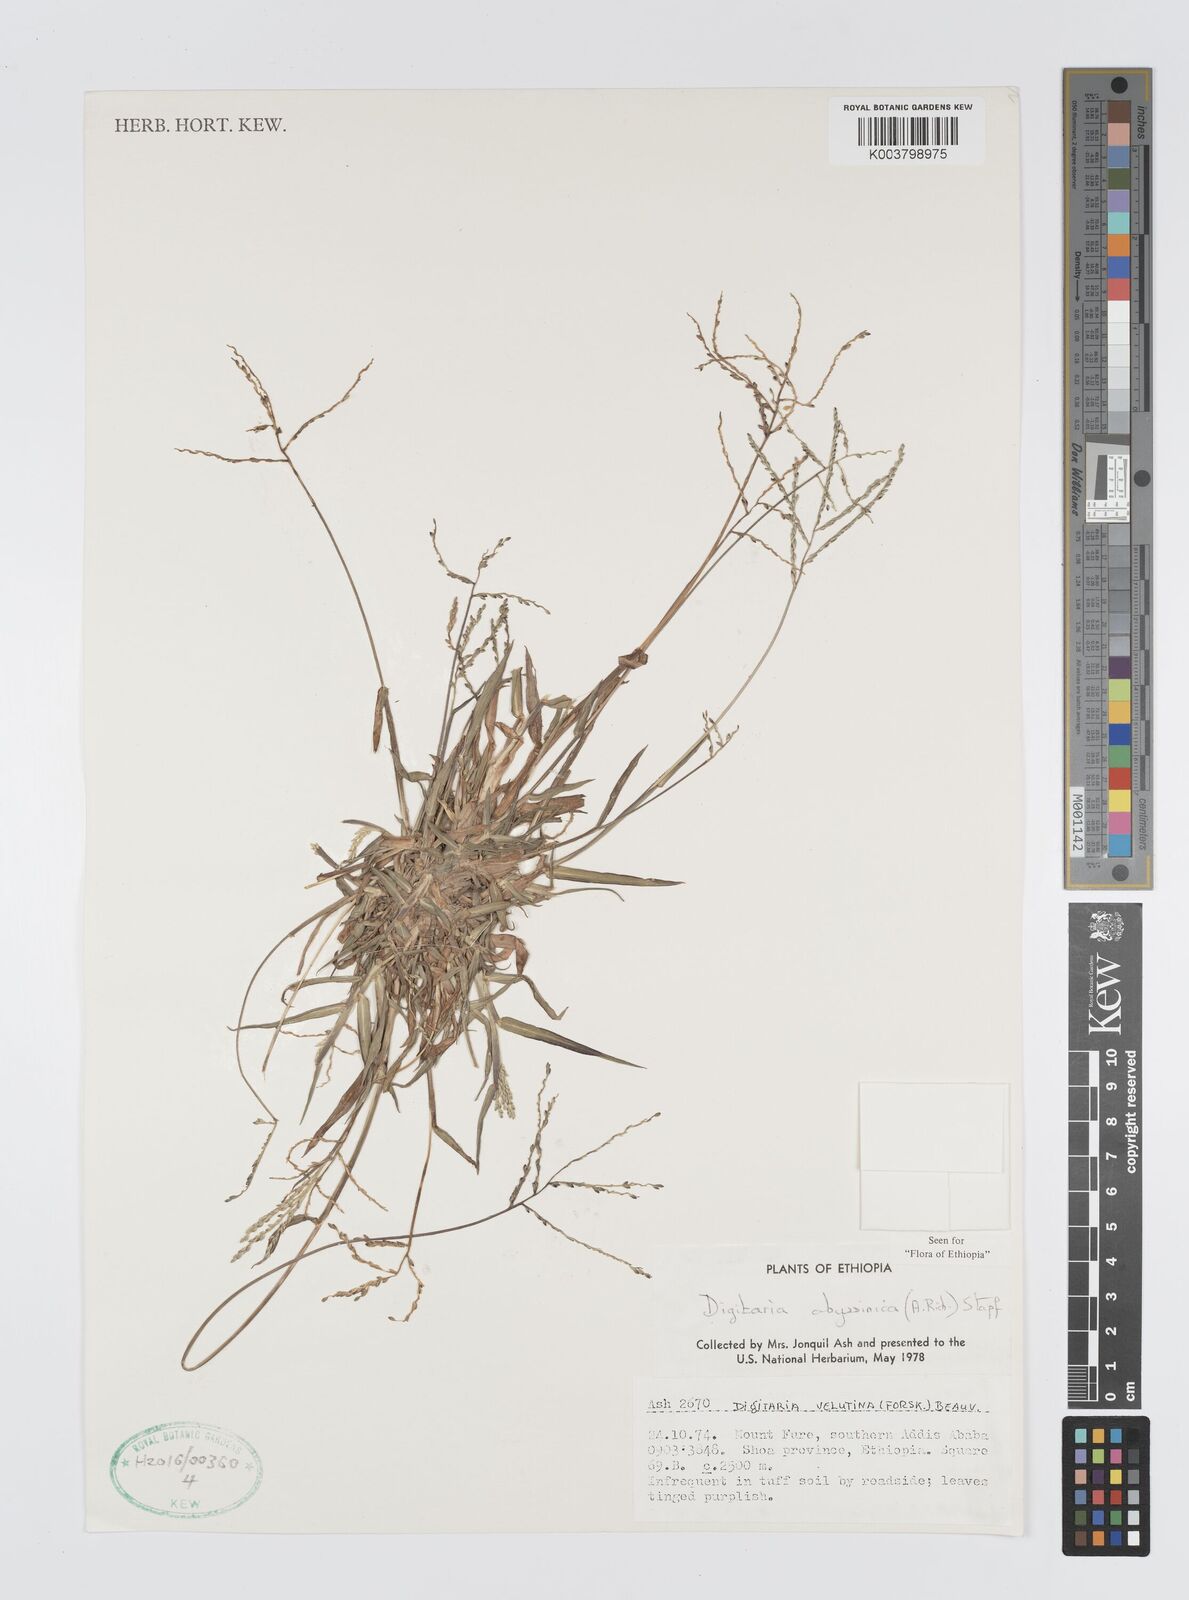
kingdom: Plantae
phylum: Tracheophyta
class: Liliopsida
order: Poales
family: Poaceae
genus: Digitaria
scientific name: Digitaria abyssinica
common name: African couchgrass
